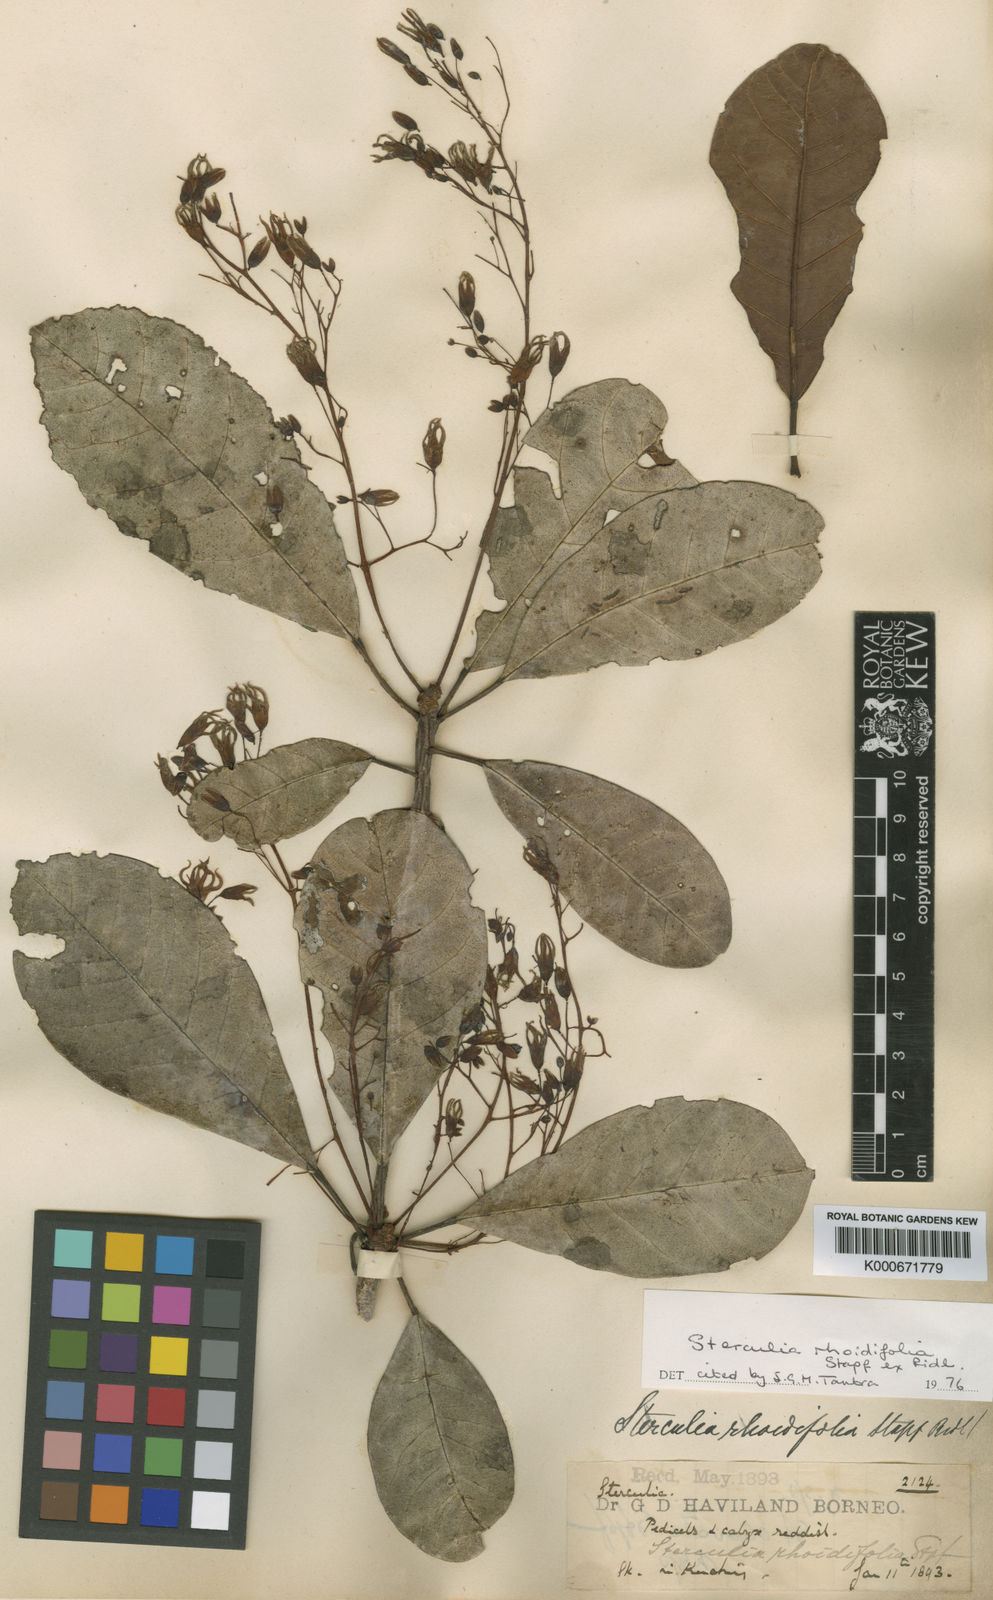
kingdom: Plantae
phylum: Tracheophyta
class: Magnoliopsida
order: Malvales
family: Malvaceae
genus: Sterculia
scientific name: Sterculia rhoidifolia
